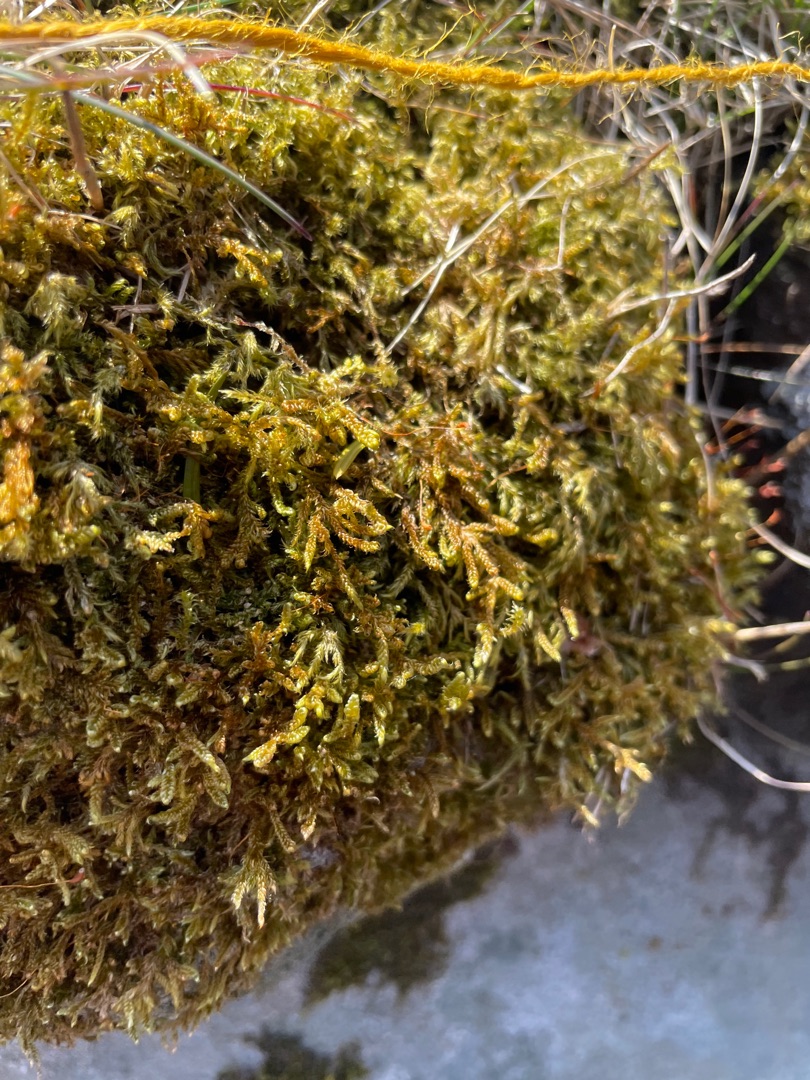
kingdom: Plantae
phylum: Bryophyta
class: Bryopsida
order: Hypnales
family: Hypnaceae
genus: Hypnum
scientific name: Hypnum cupressiforme
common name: Almindelig cypresmos
